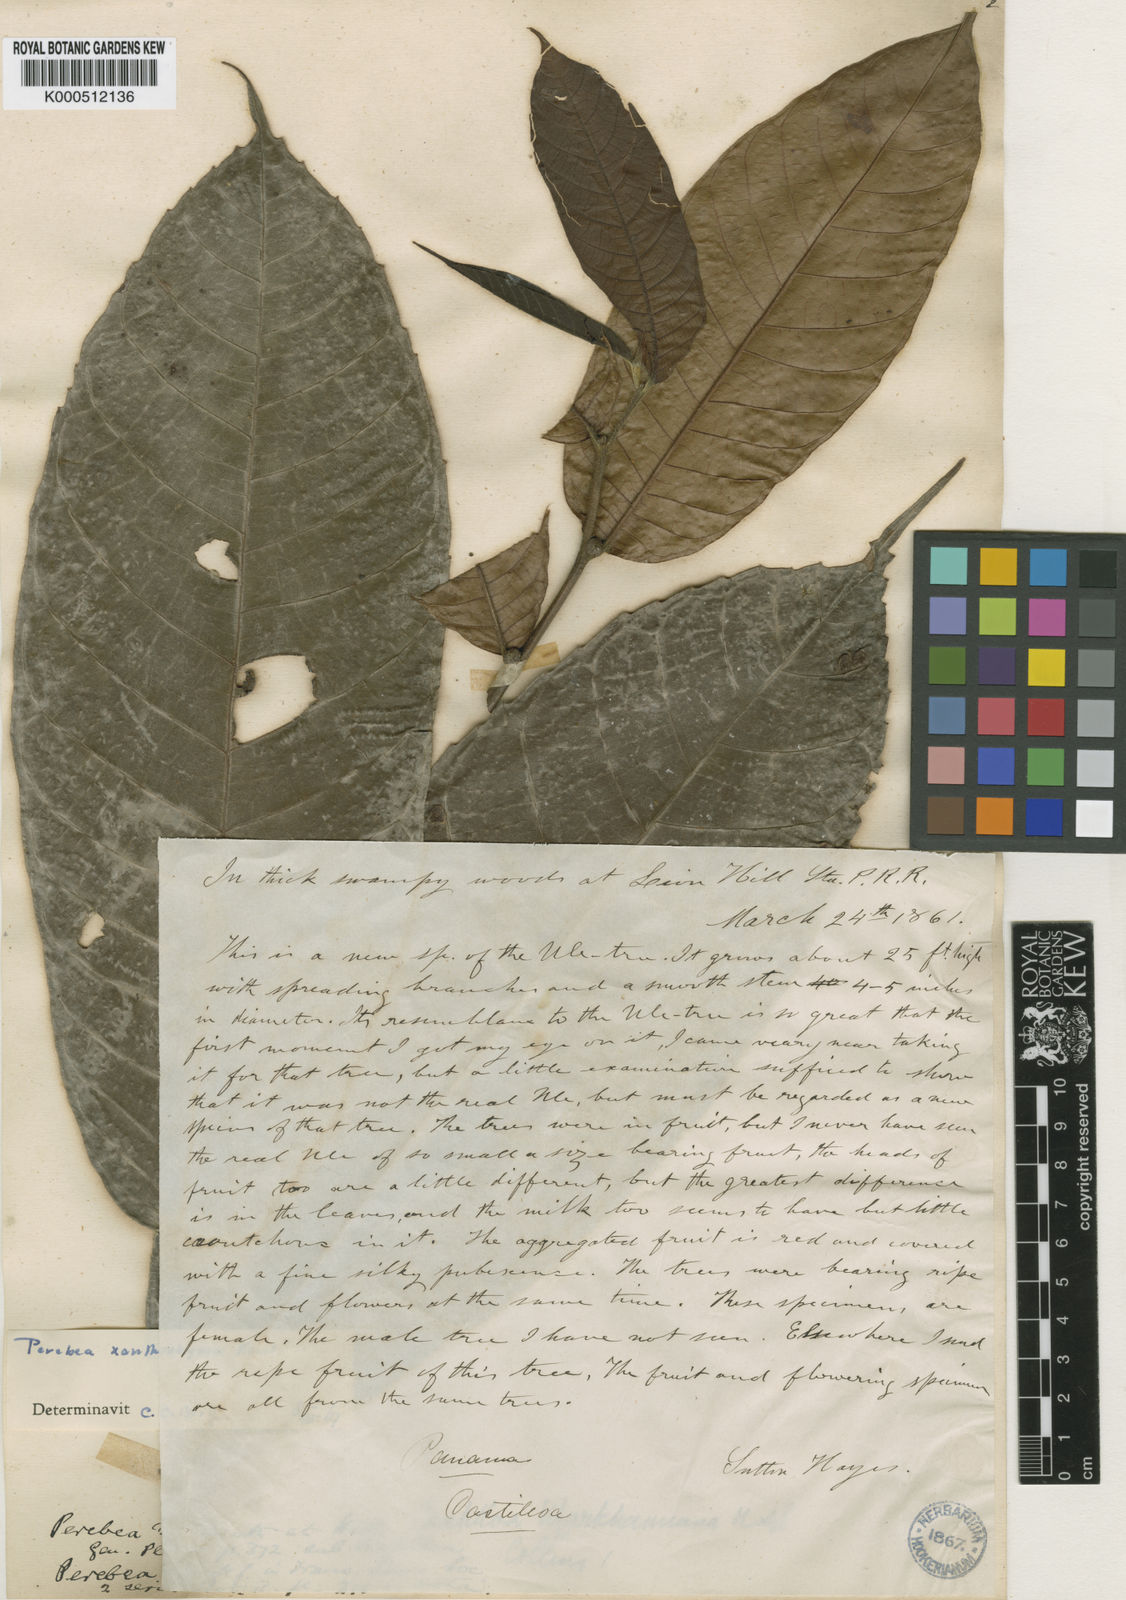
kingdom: Plantae
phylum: Tracheophyta
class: Magnoliopsida
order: Rosales
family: Moraceae
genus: Perebea
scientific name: Perebea xanthochyma
